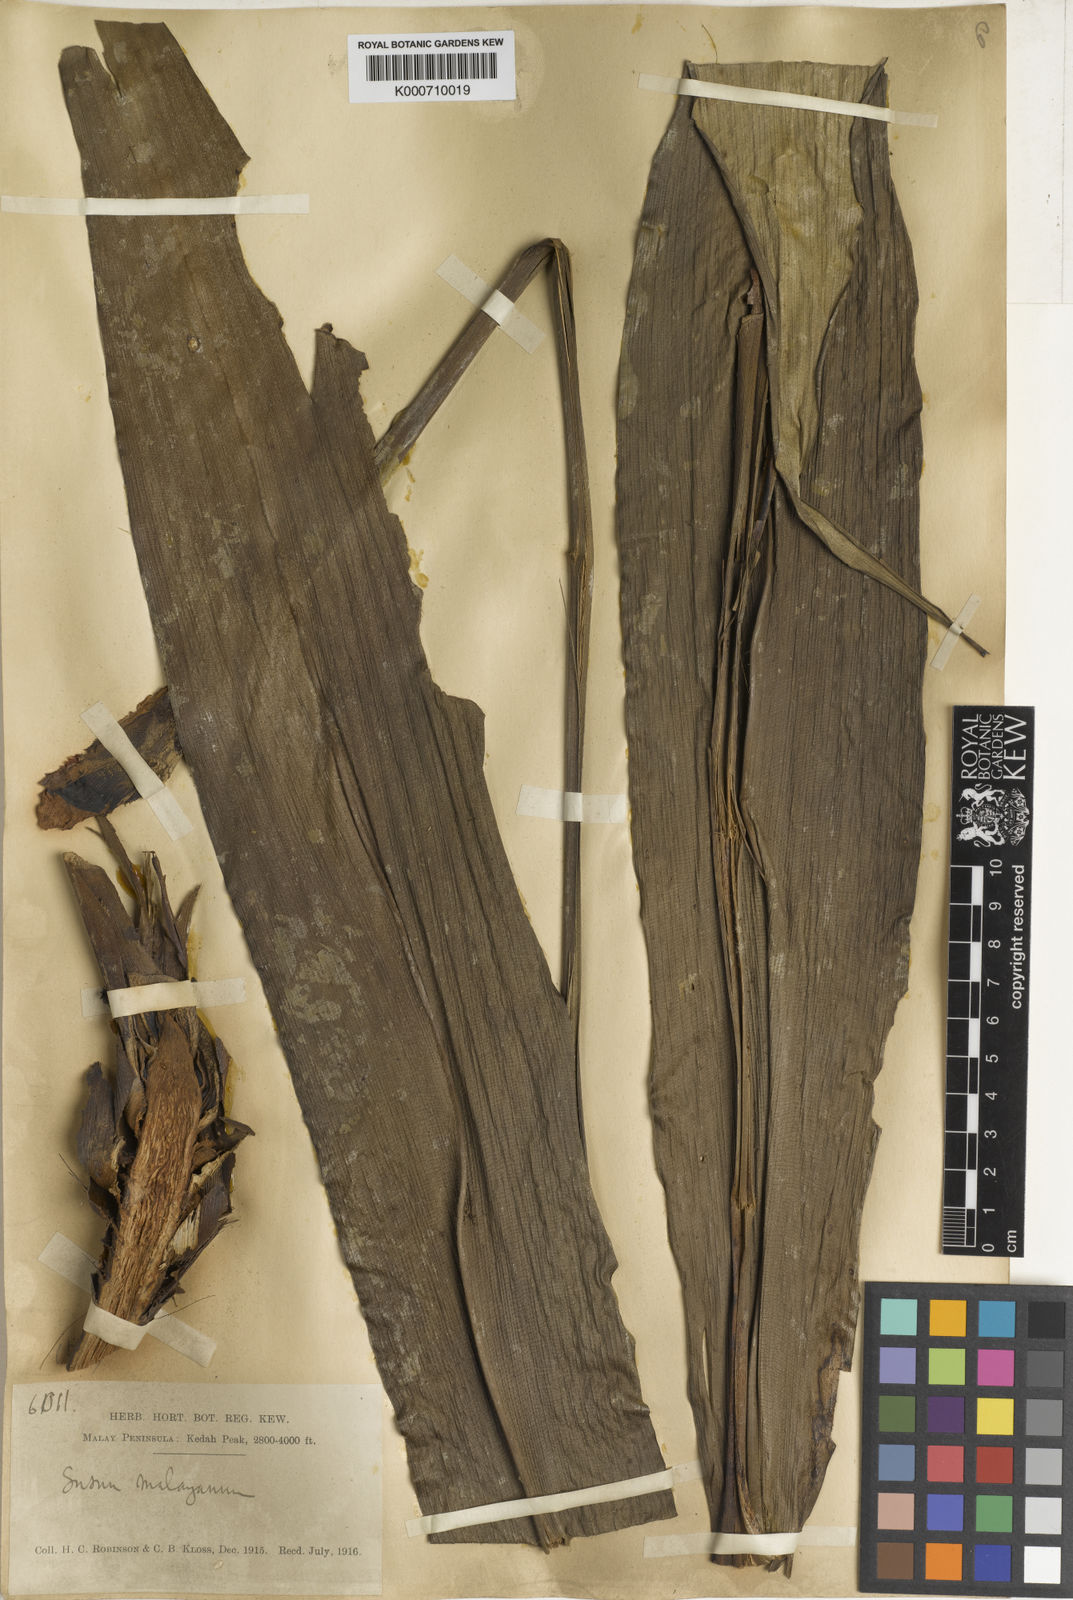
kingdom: Plantae
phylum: Tracheophyta
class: Liliopsida
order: Commelinales
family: Hanguanaceae
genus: Hanguana
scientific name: Hanguana malayana
